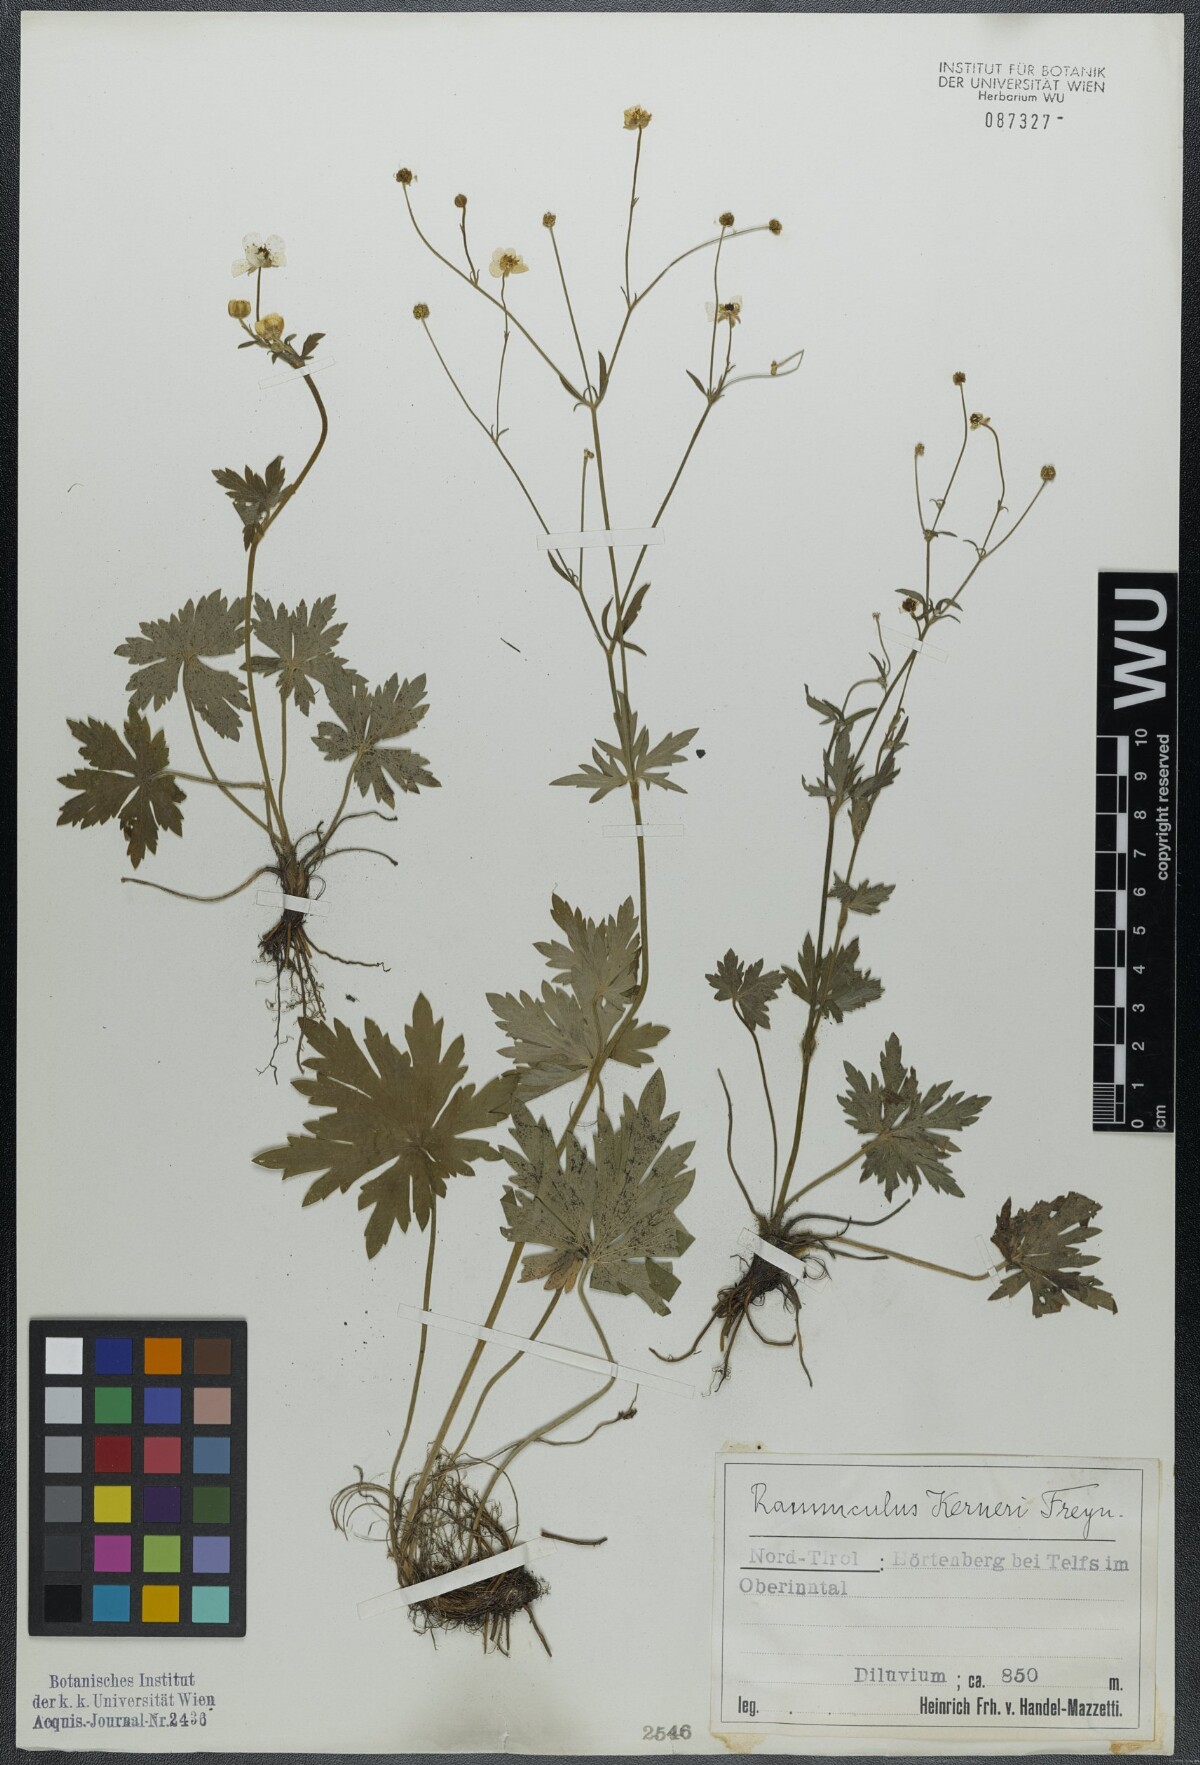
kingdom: Plantae
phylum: Tracheophyta
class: Magnoliopsida
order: Ranunculales
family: Ranunculaceae
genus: Ranunculus
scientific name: Ranunculus acris
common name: Meadow buttercup
